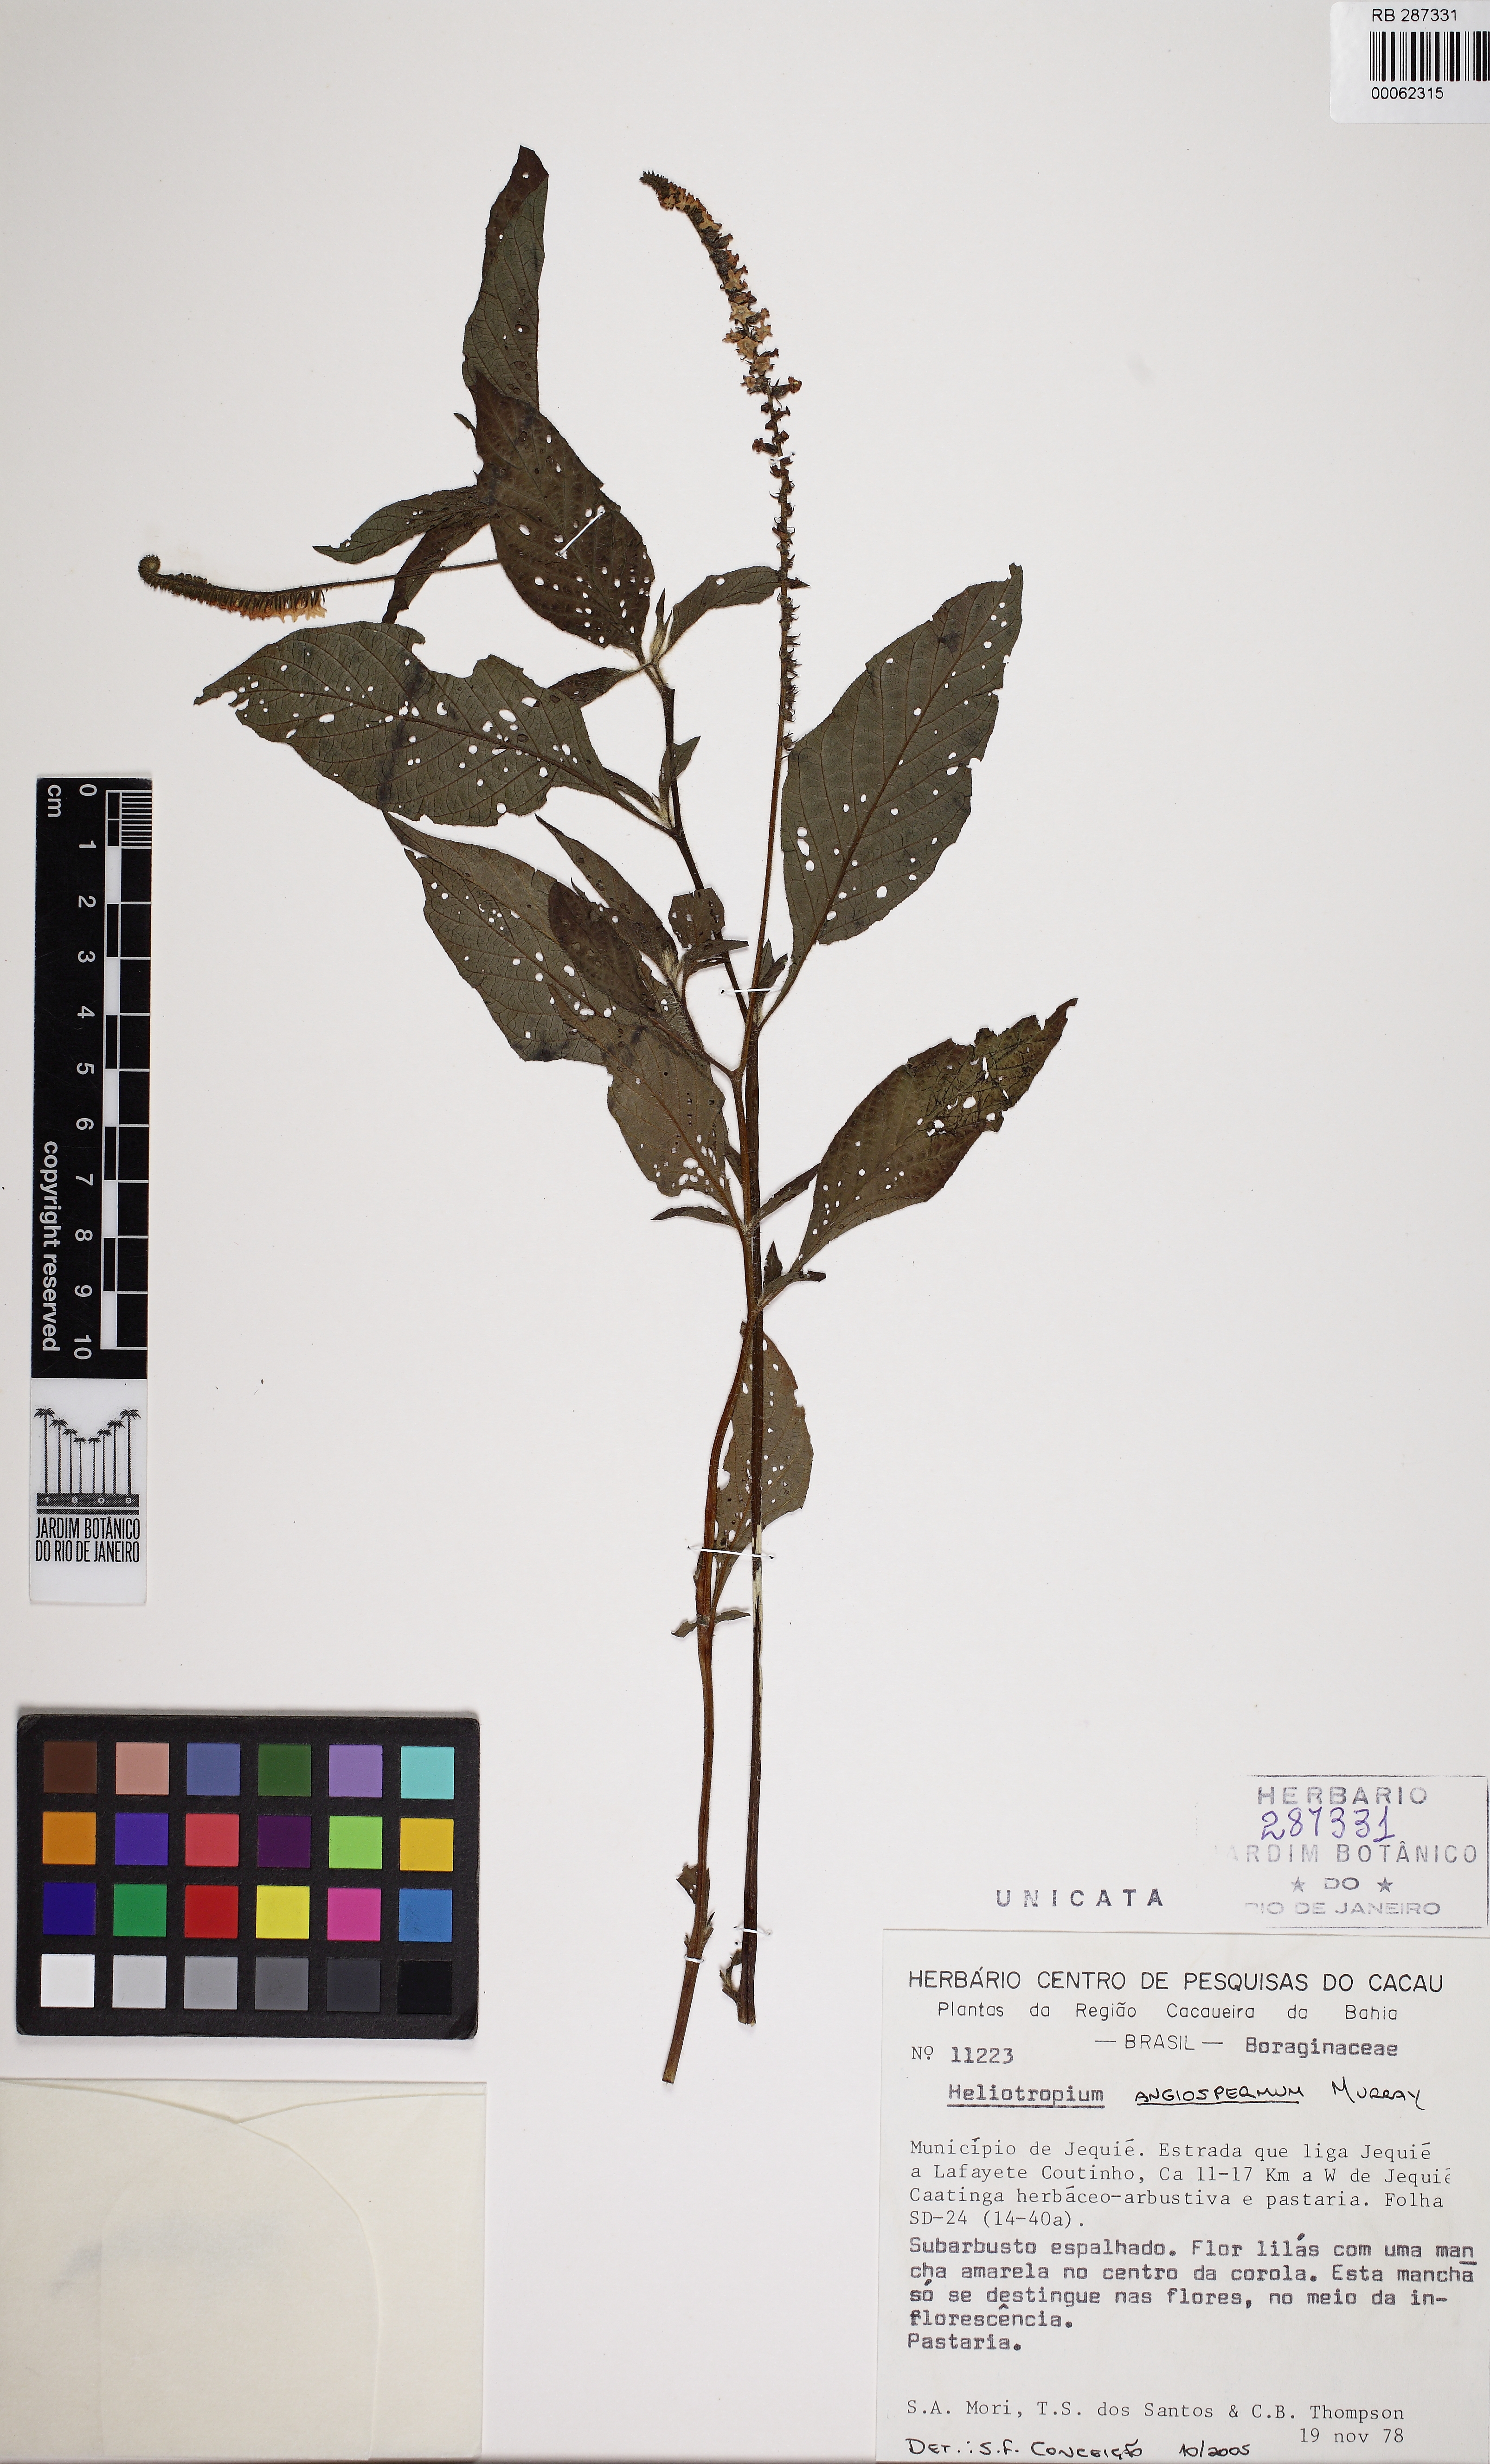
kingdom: Plantae
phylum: Tracheophyta
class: Magnoliopsida
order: Boraginales
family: Heliotropiaceae
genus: Heliotropium
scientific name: Heliotropium
